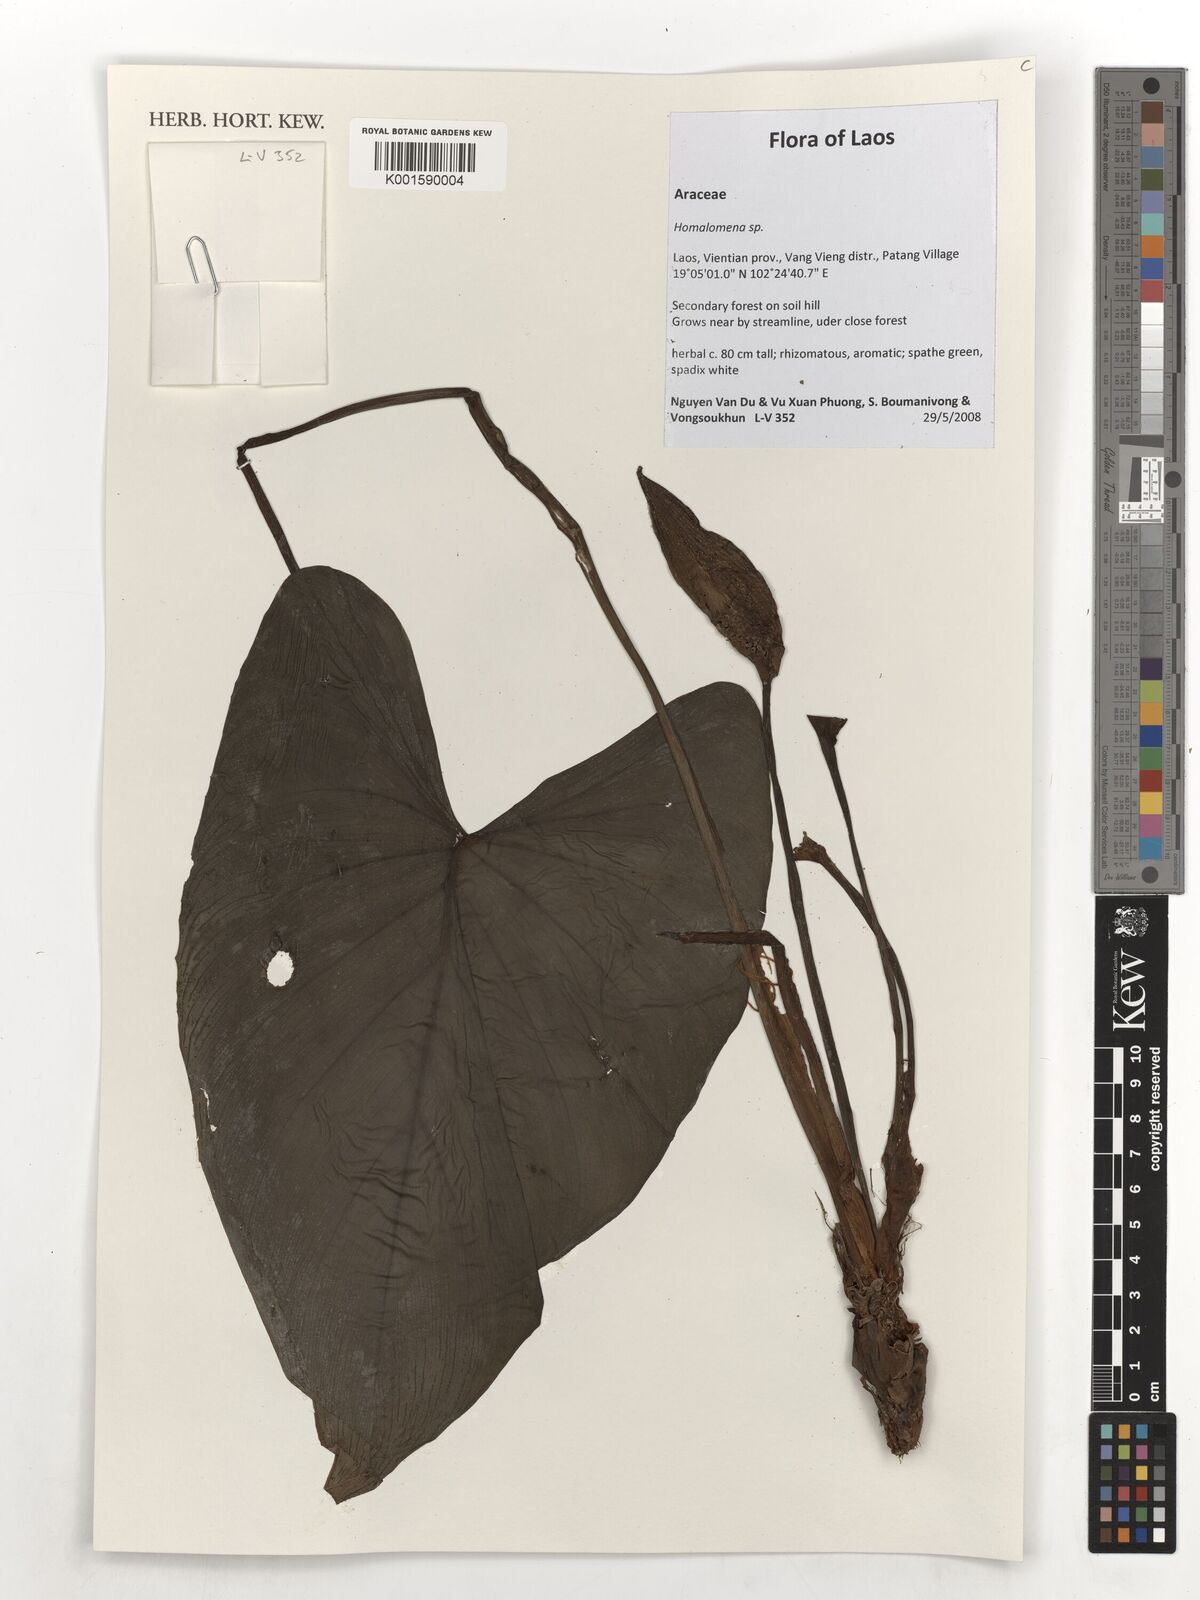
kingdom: Plantae
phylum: Tracheophyta
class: Liliopsida
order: Alismatales
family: Araceae
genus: Homalomena
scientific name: Homalomena
